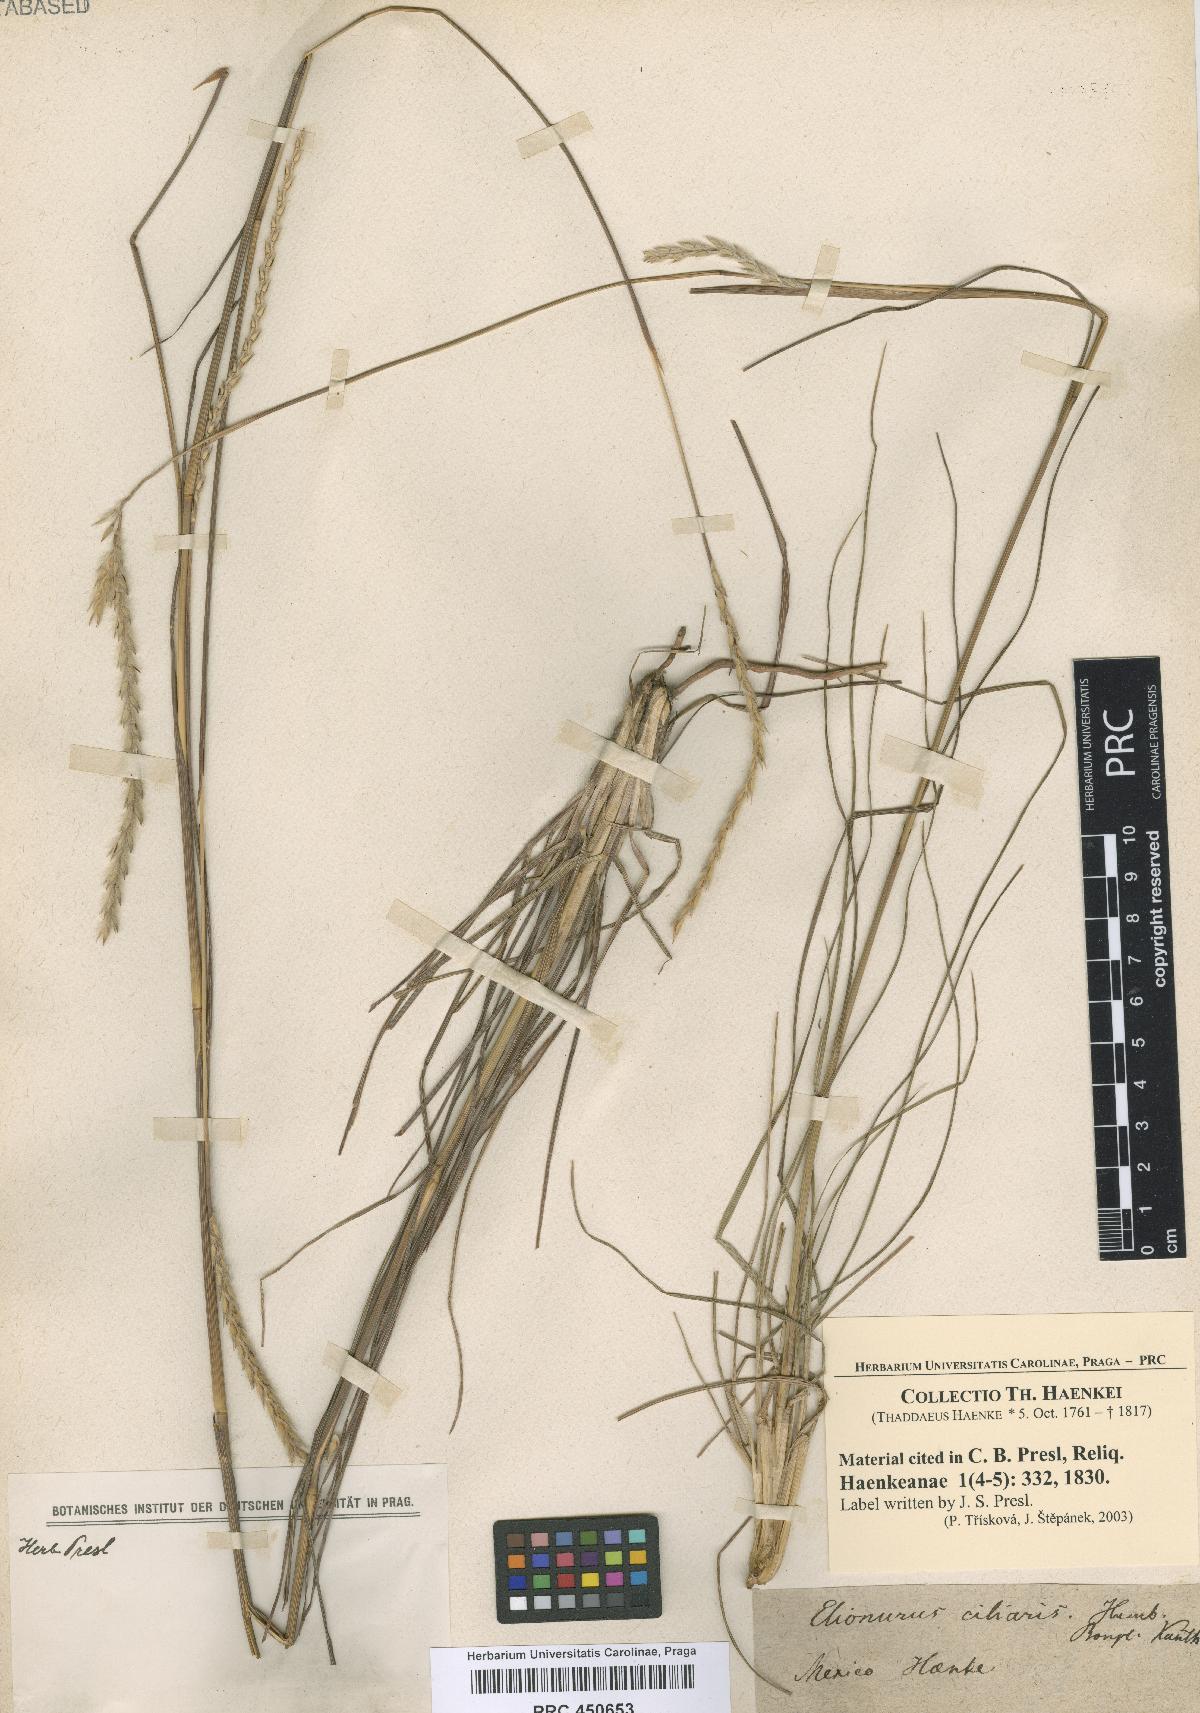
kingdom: Plantae
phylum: Tracheophyta
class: Liliopsida
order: Poales
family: Poaceae
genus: Elionurus
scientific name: Elionurus
